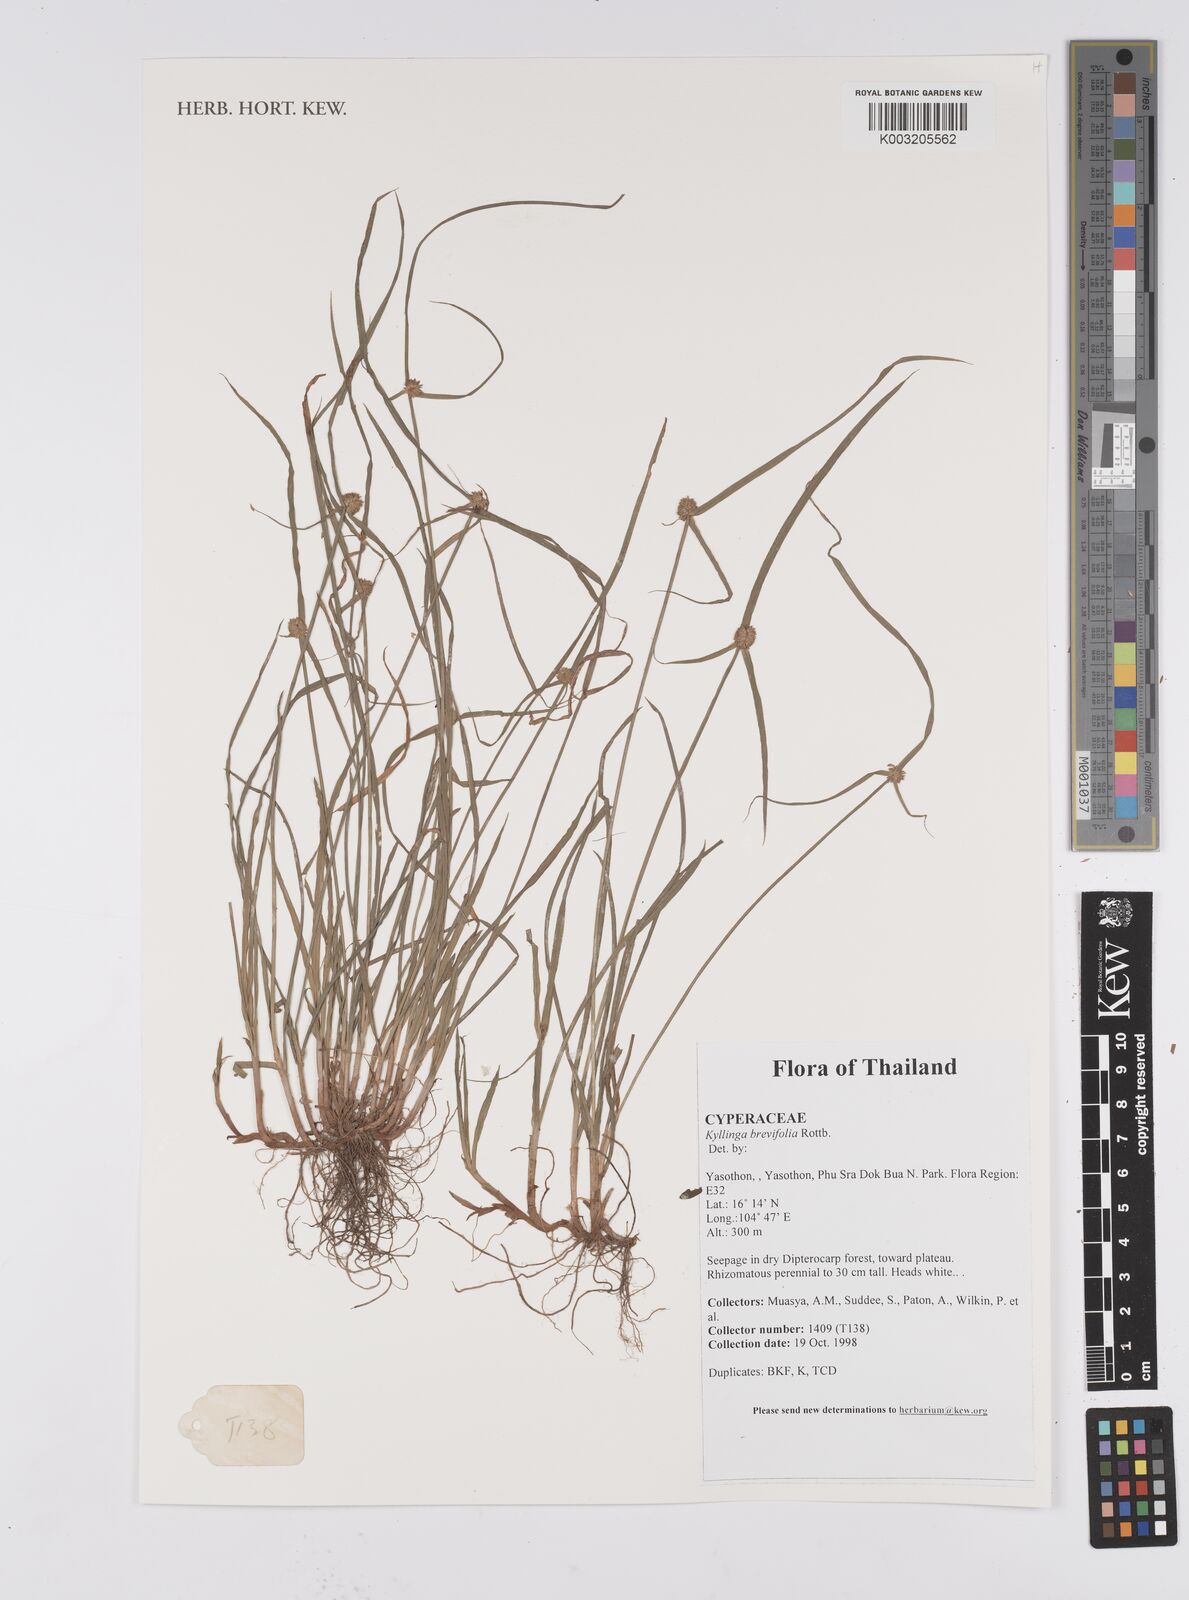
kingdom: Plantae
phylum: Tracheophyta
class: Liliopsida
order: Poales
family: Cyperaceae
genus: Cyperus
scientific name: Cyperus brevifolius
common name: Globe kyllinga
